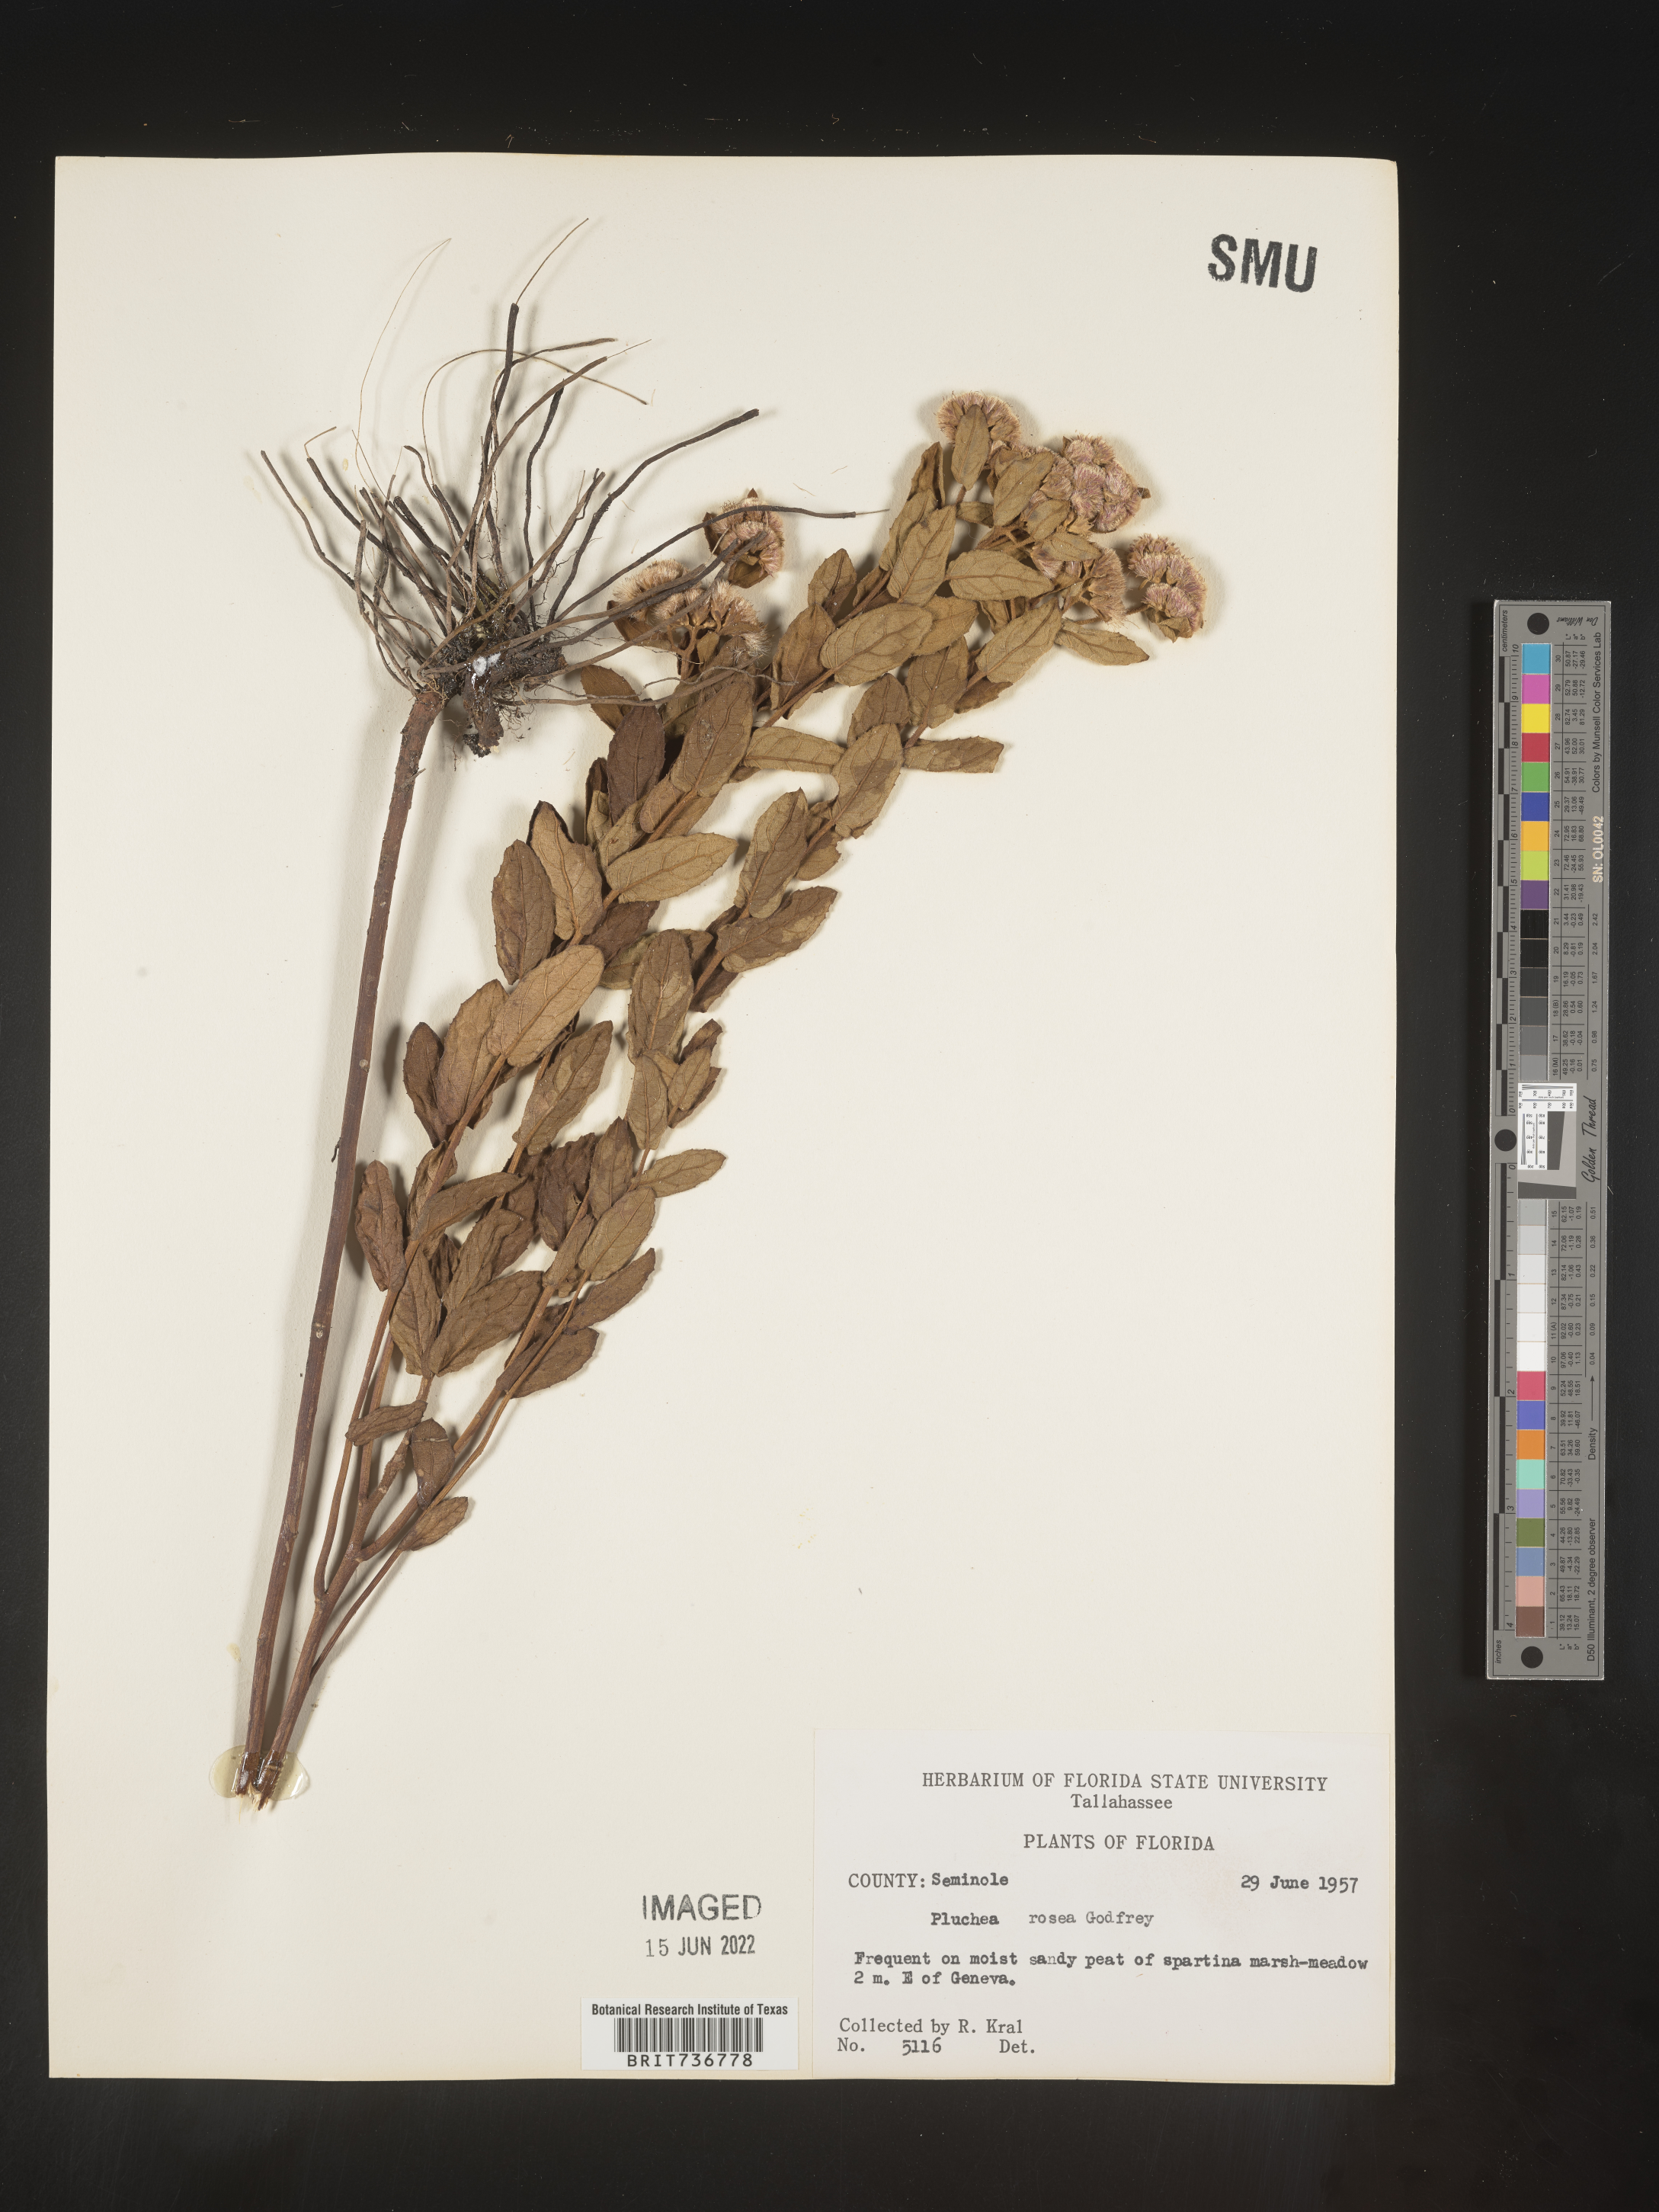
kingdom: Plantae
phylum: Tracheophyta
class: Magnoliopsida
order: Asterales
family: Asteraceae
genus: Pluchea
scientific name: Pluchea baccharis
